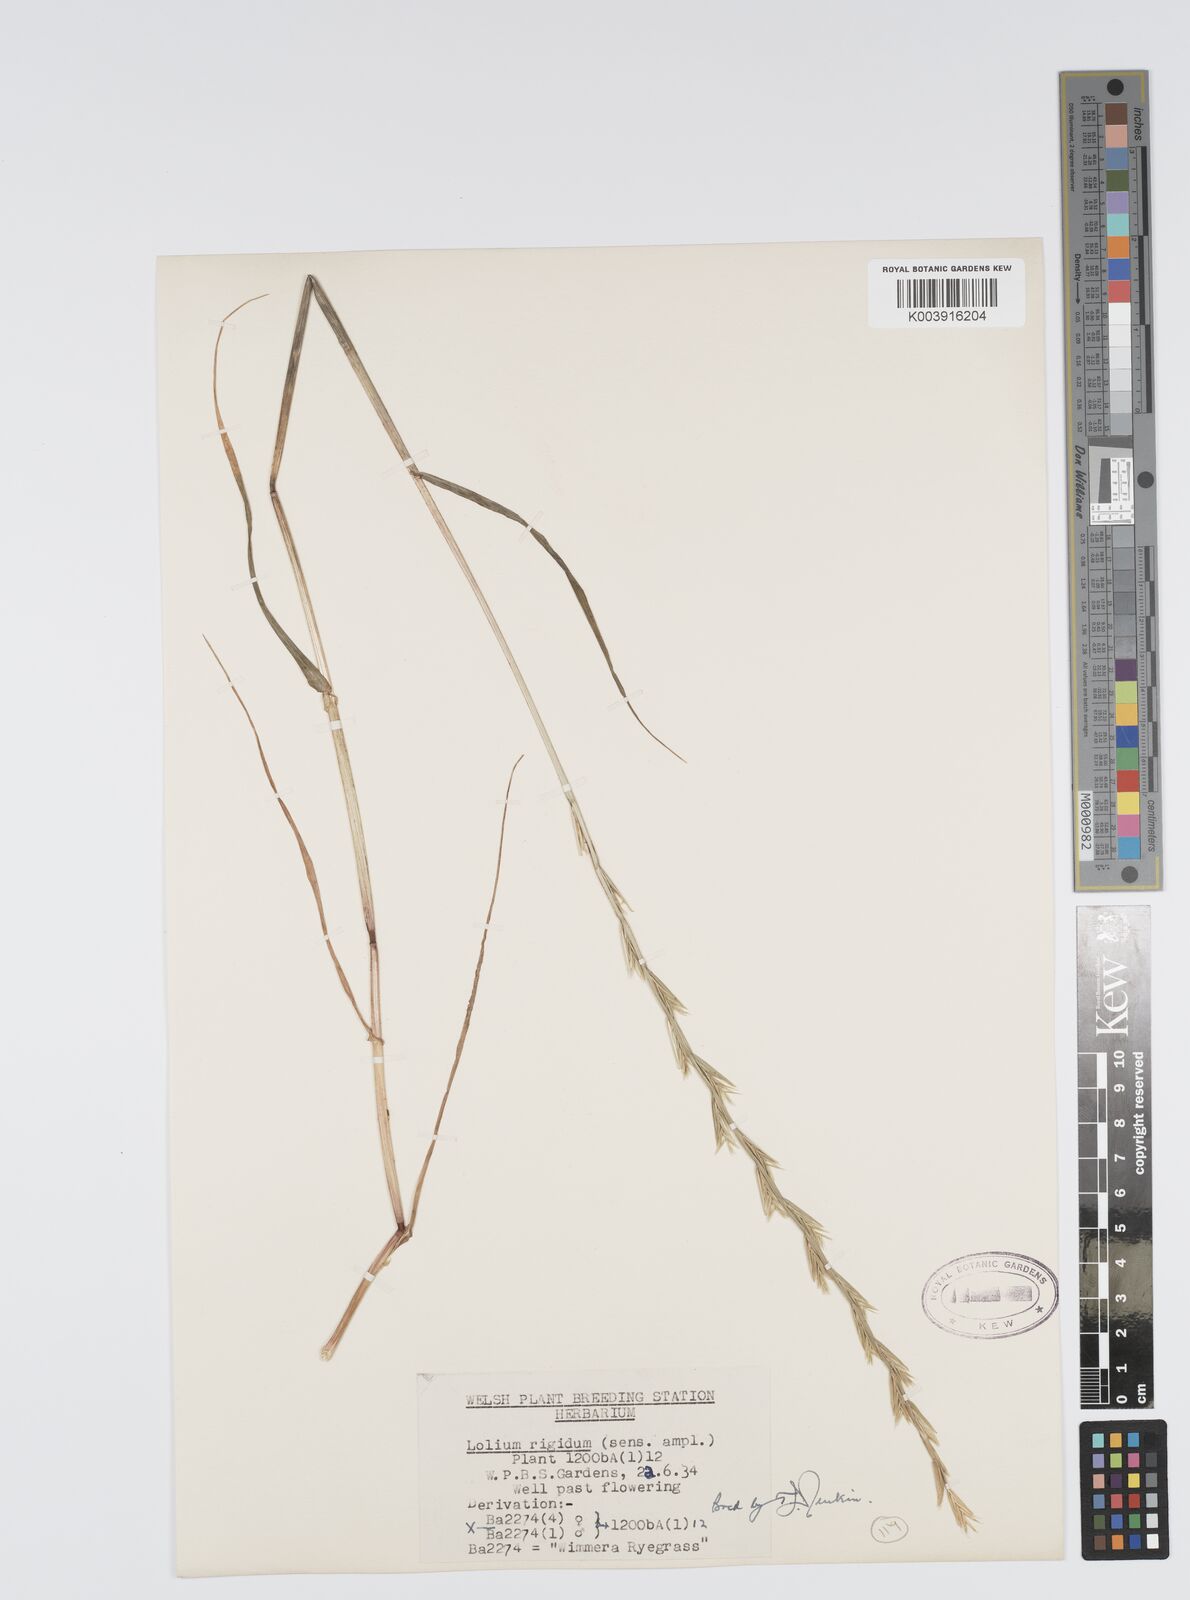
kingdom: Plantae
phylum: Tracheophyta
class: Liliopsida
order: Poales
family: Poaceae
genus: Lolium
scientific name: Lolium rigidum
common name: Wimmera ryegrass
